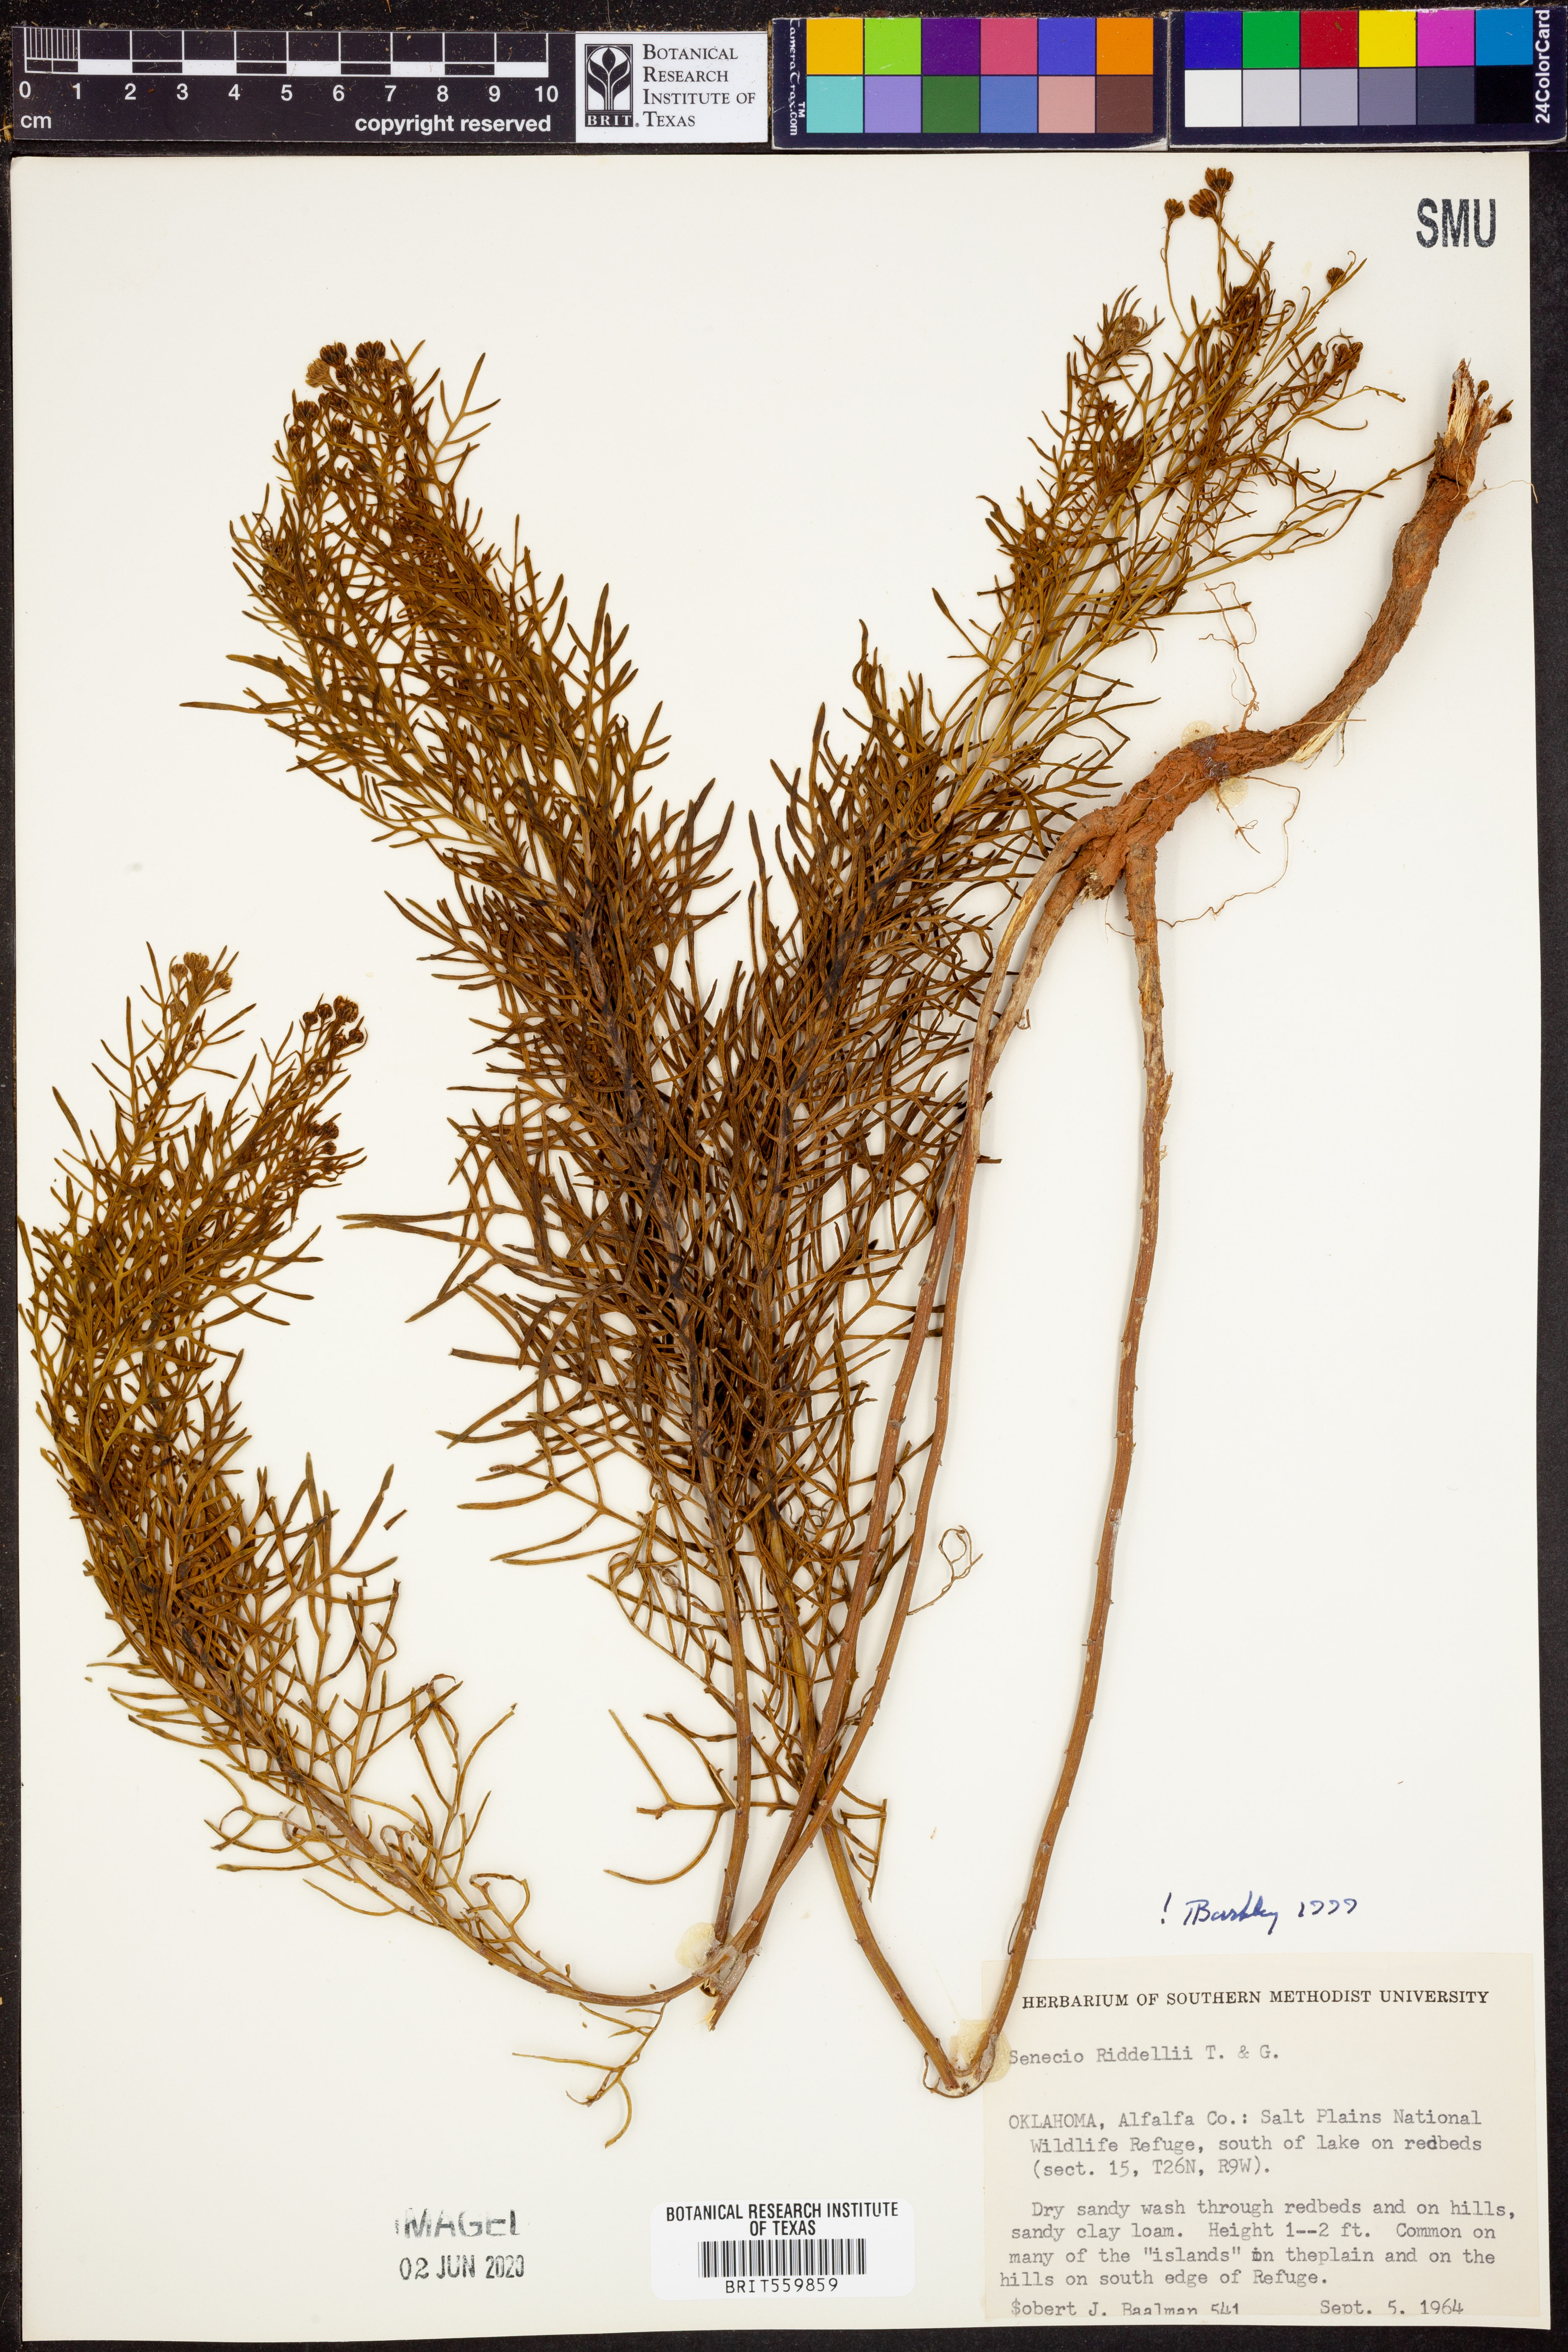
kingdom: Plantae
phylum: Tracheophyta
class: Magnoliopsida
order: Asterales
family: Asteraceae
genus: Senecio
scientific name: Senecio riddellii
